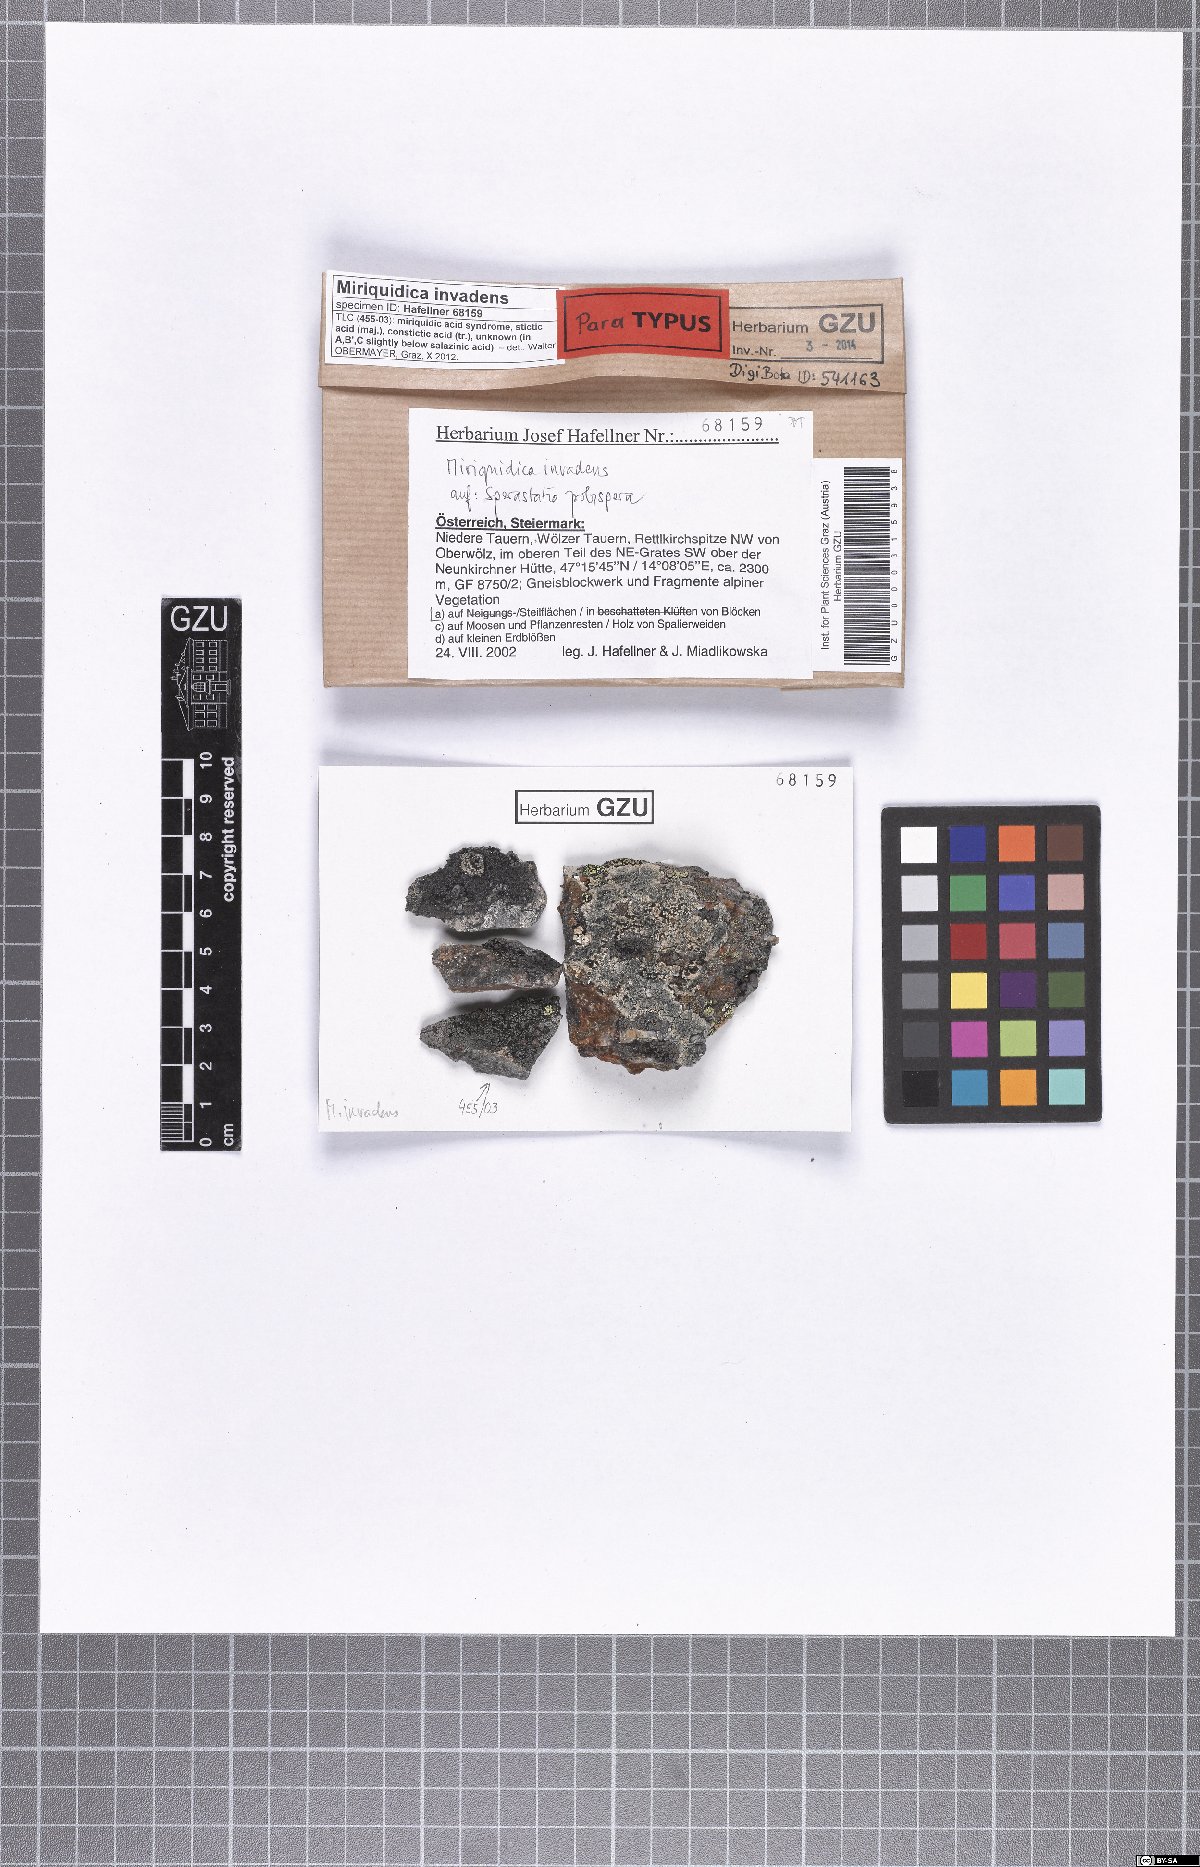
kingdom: Fungi
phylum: Ascomycota
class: Lecanoromycetes
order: Lecanorales
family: Lecanoraceae
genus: Miriquidica
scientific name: Miriquidica invadens
